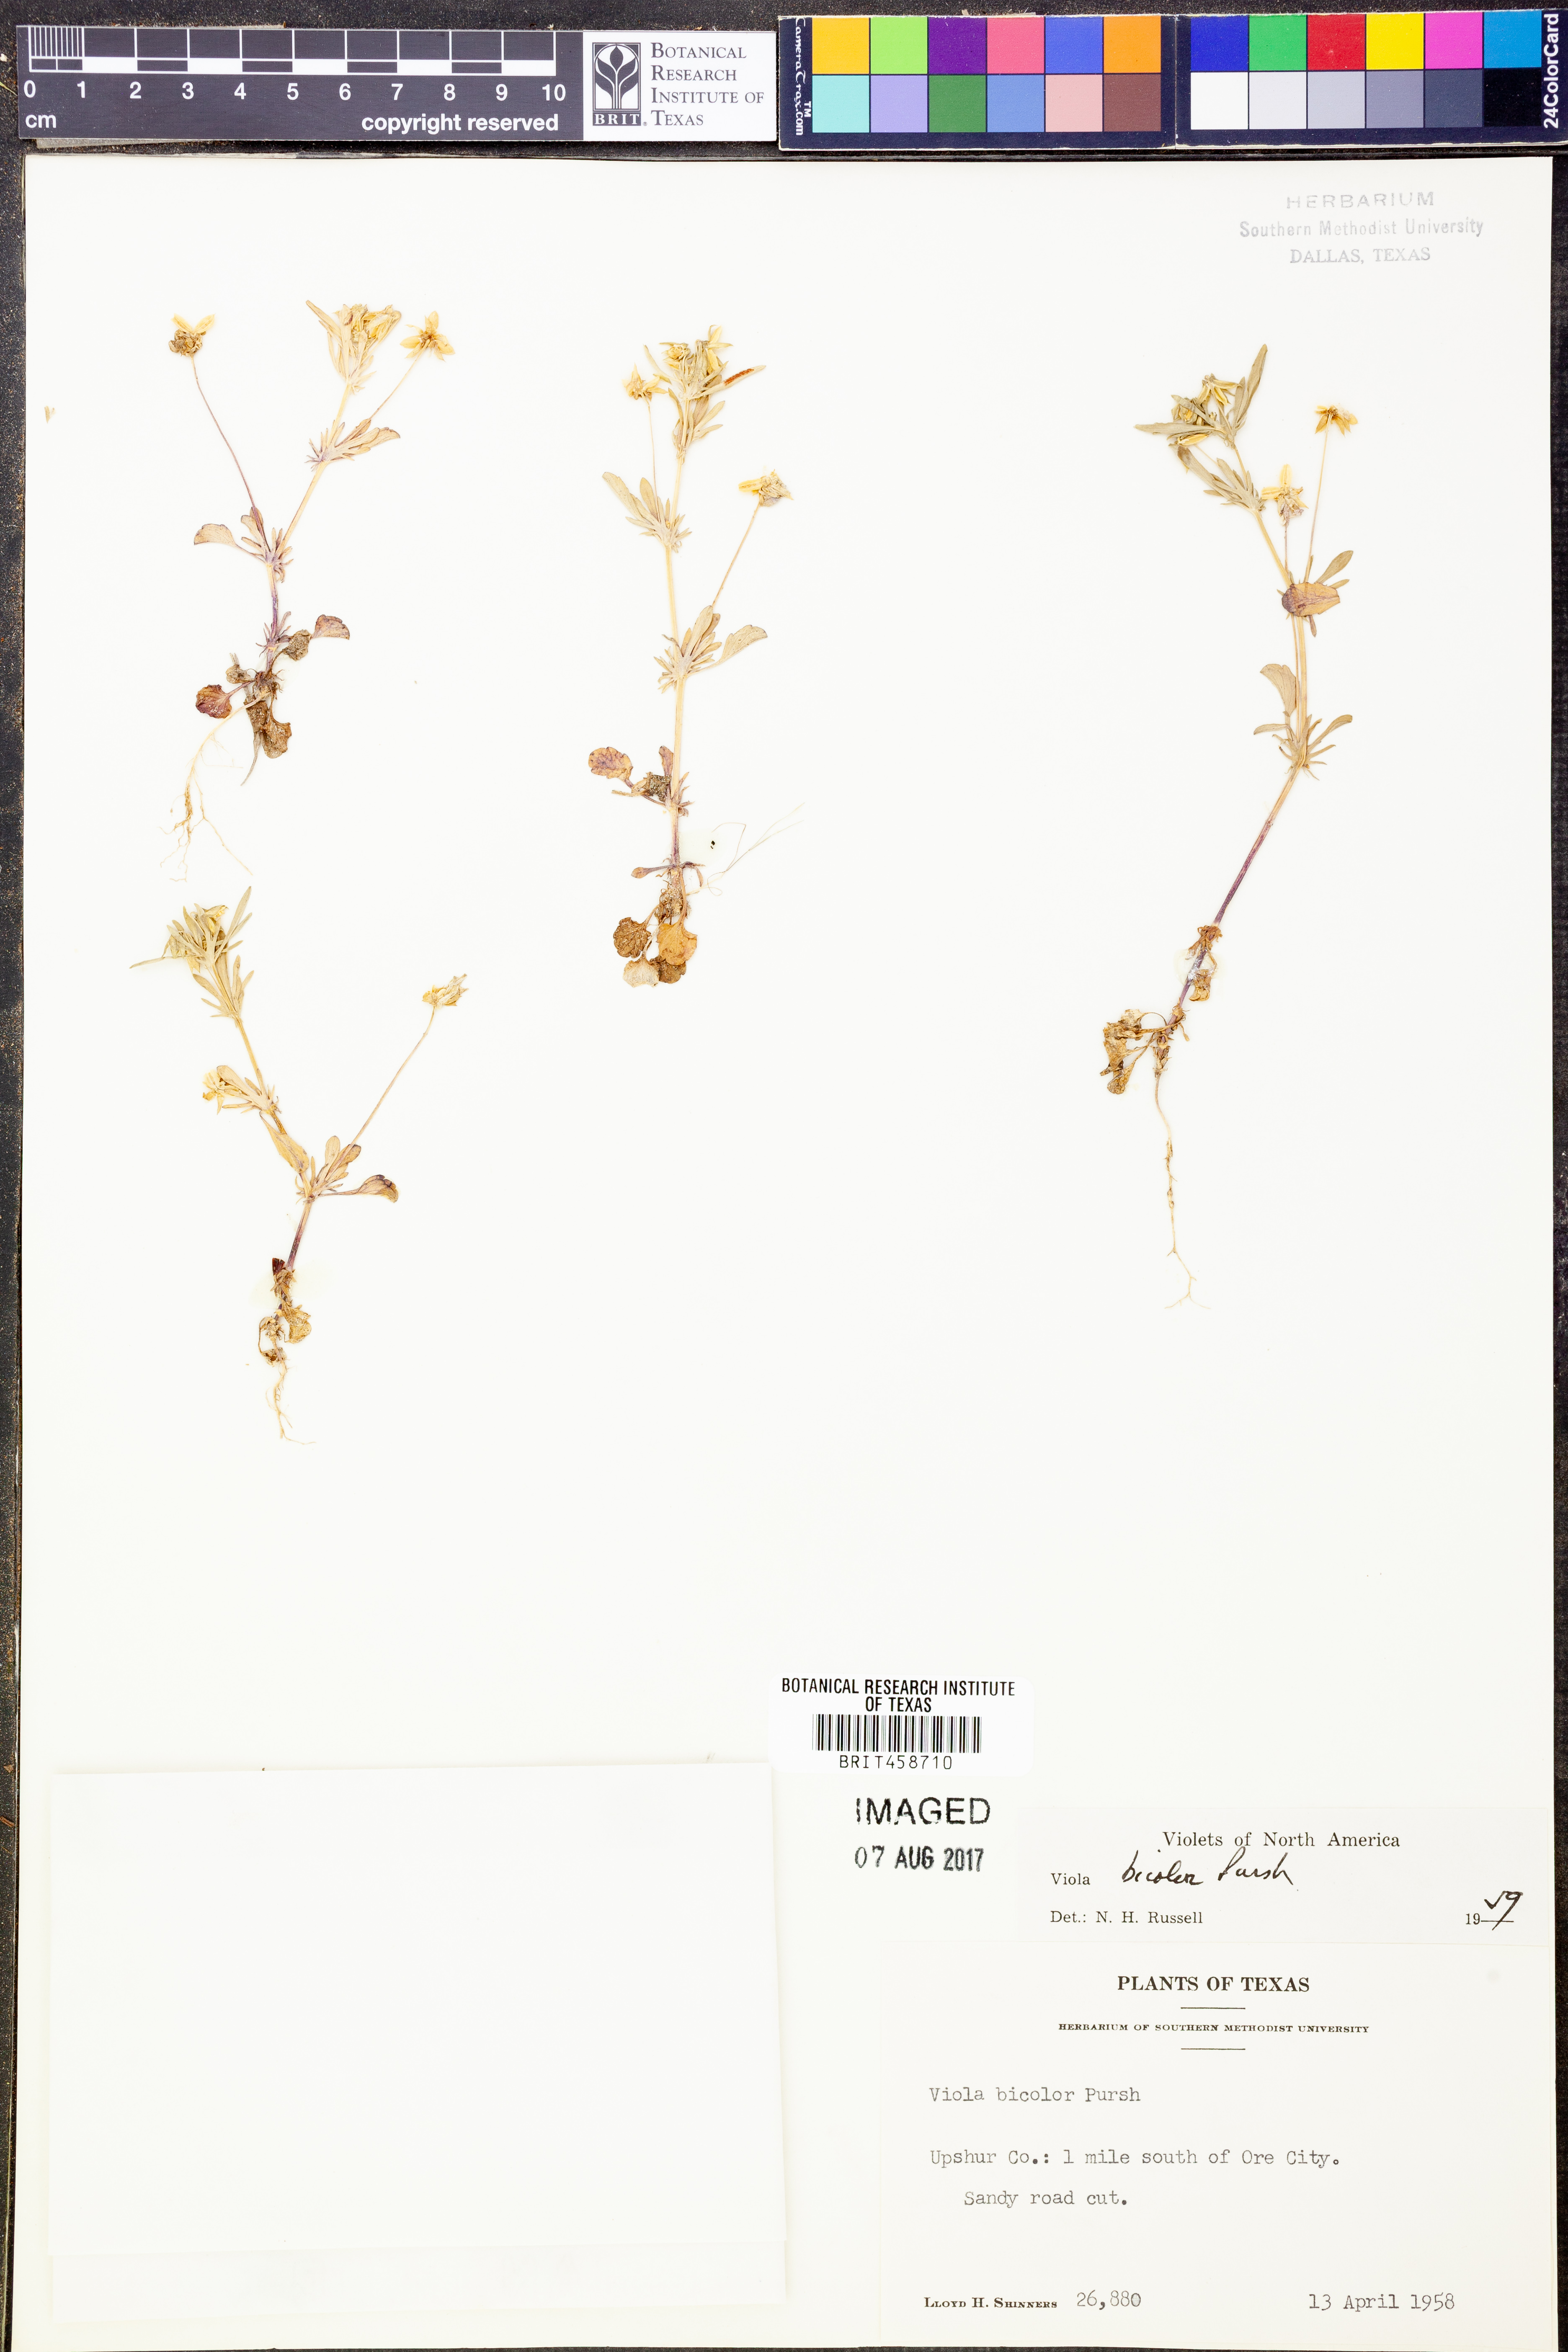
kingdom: Plantae
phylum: Tracheophyta
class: Magnoliopsida
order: Malpighiales
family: Violaceae
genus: Viola
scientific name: Viola rafinesquei
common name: American field pansy
